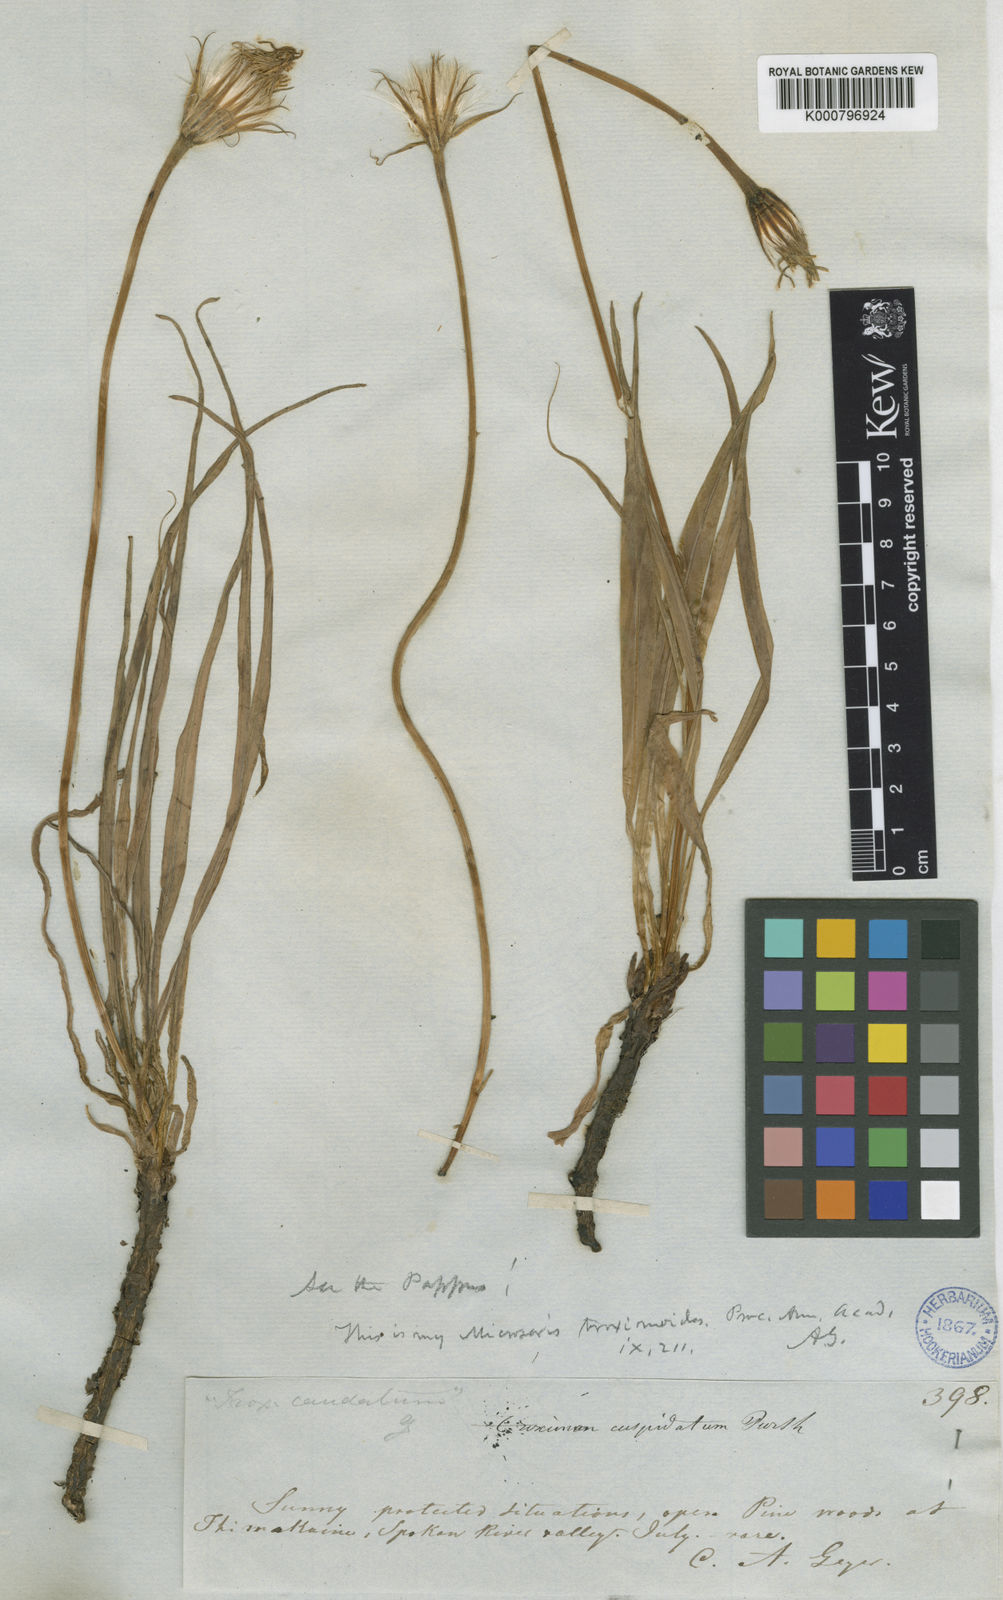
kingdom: Plantae
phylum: Tracheophyta
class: Magnoliopsida
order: Asterales
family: Asteraceae
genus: Microseris
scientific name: Microseris troximoides
